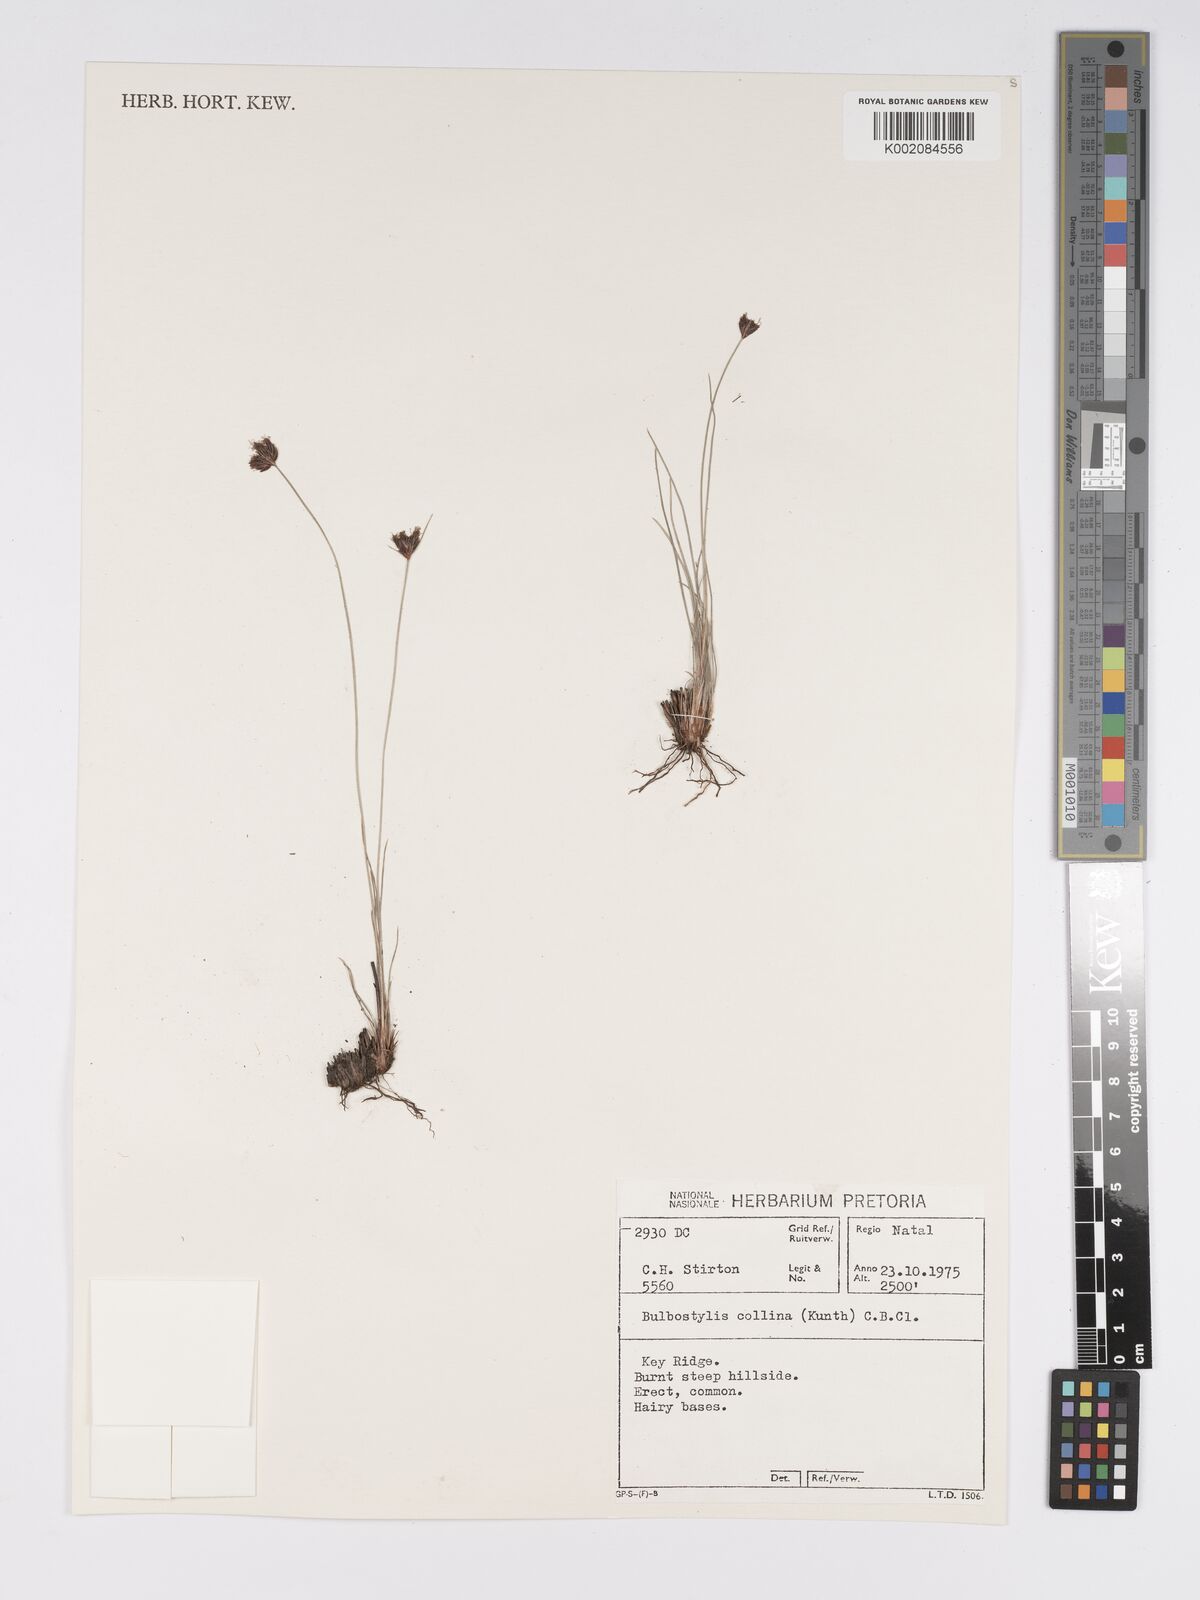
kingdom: Plantae
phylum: Tracheophyta
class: Liliopsida
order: Poales
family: Cyperaceae
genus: Bulbostylis
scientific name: Bulbostylis contexta
